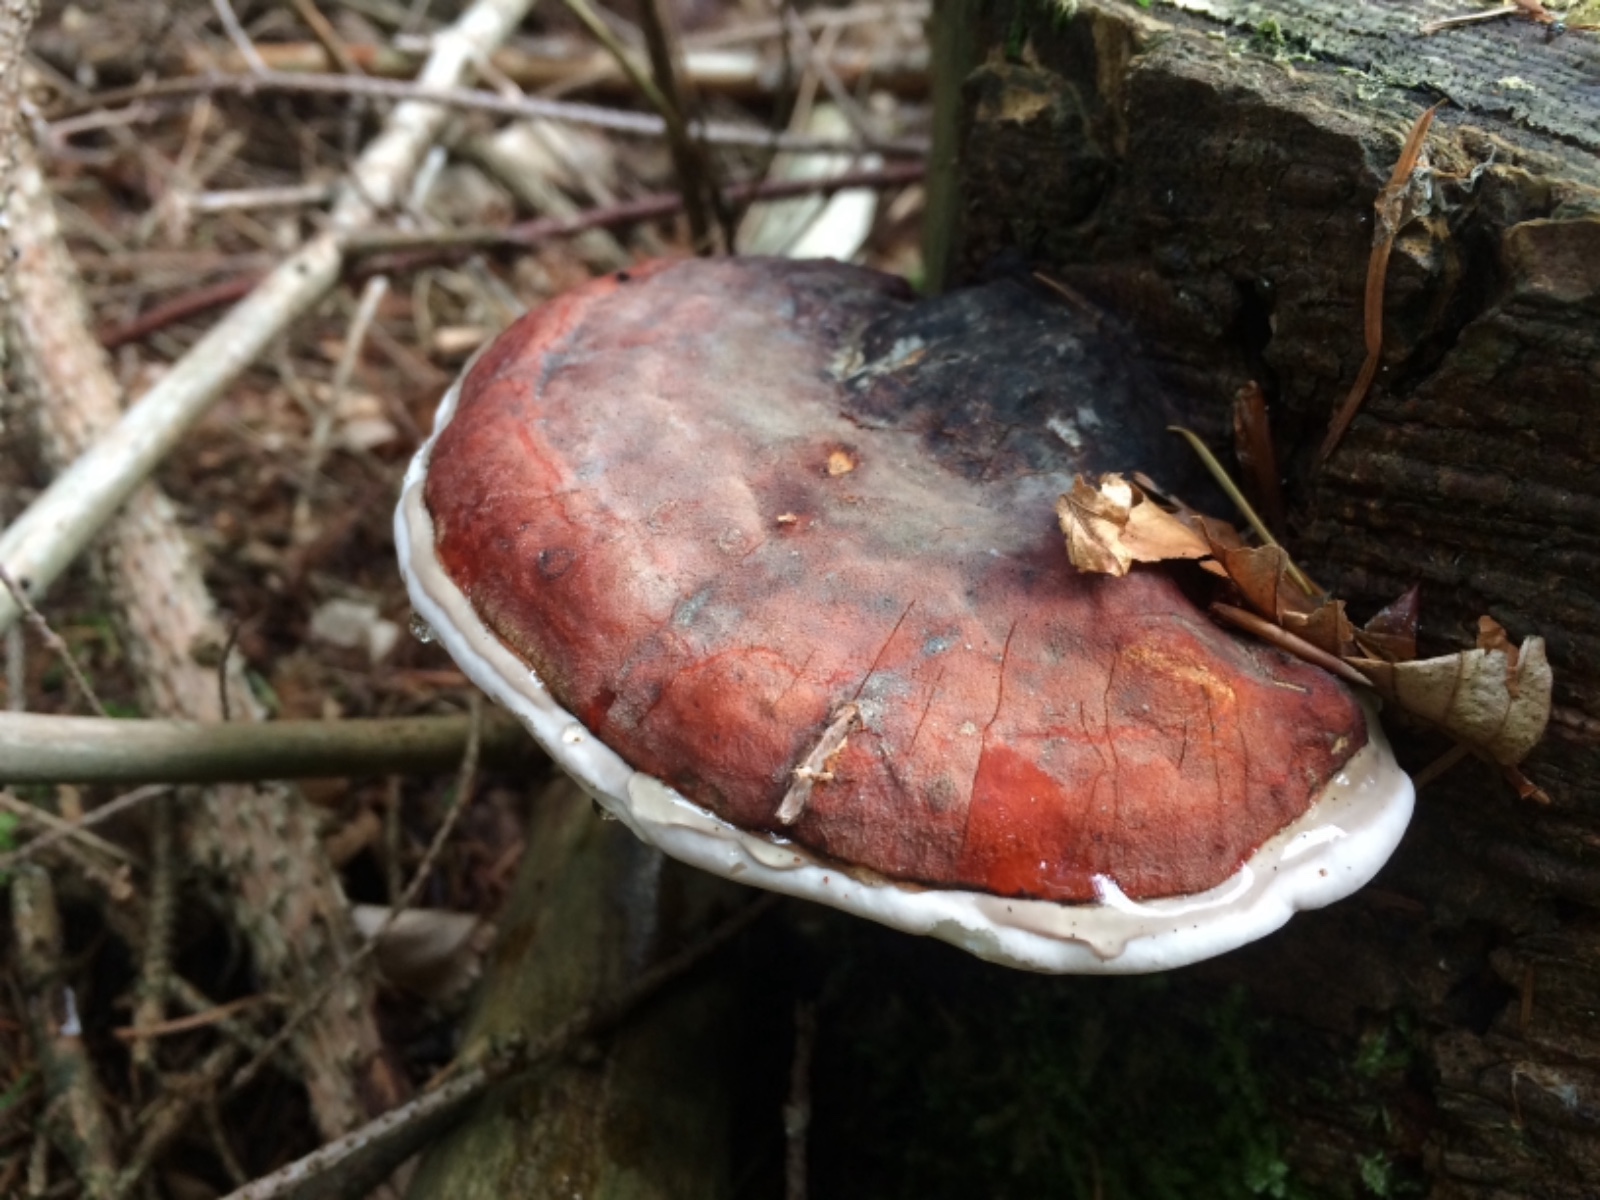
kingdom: Fungi
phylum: Basidiomycota
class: Agaricomycetes
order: Polyporales
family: Fomitopsidaceae
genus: Fomitopsis
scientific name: Fomitopsis pinicola
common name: randbæltet hovporesvamp
